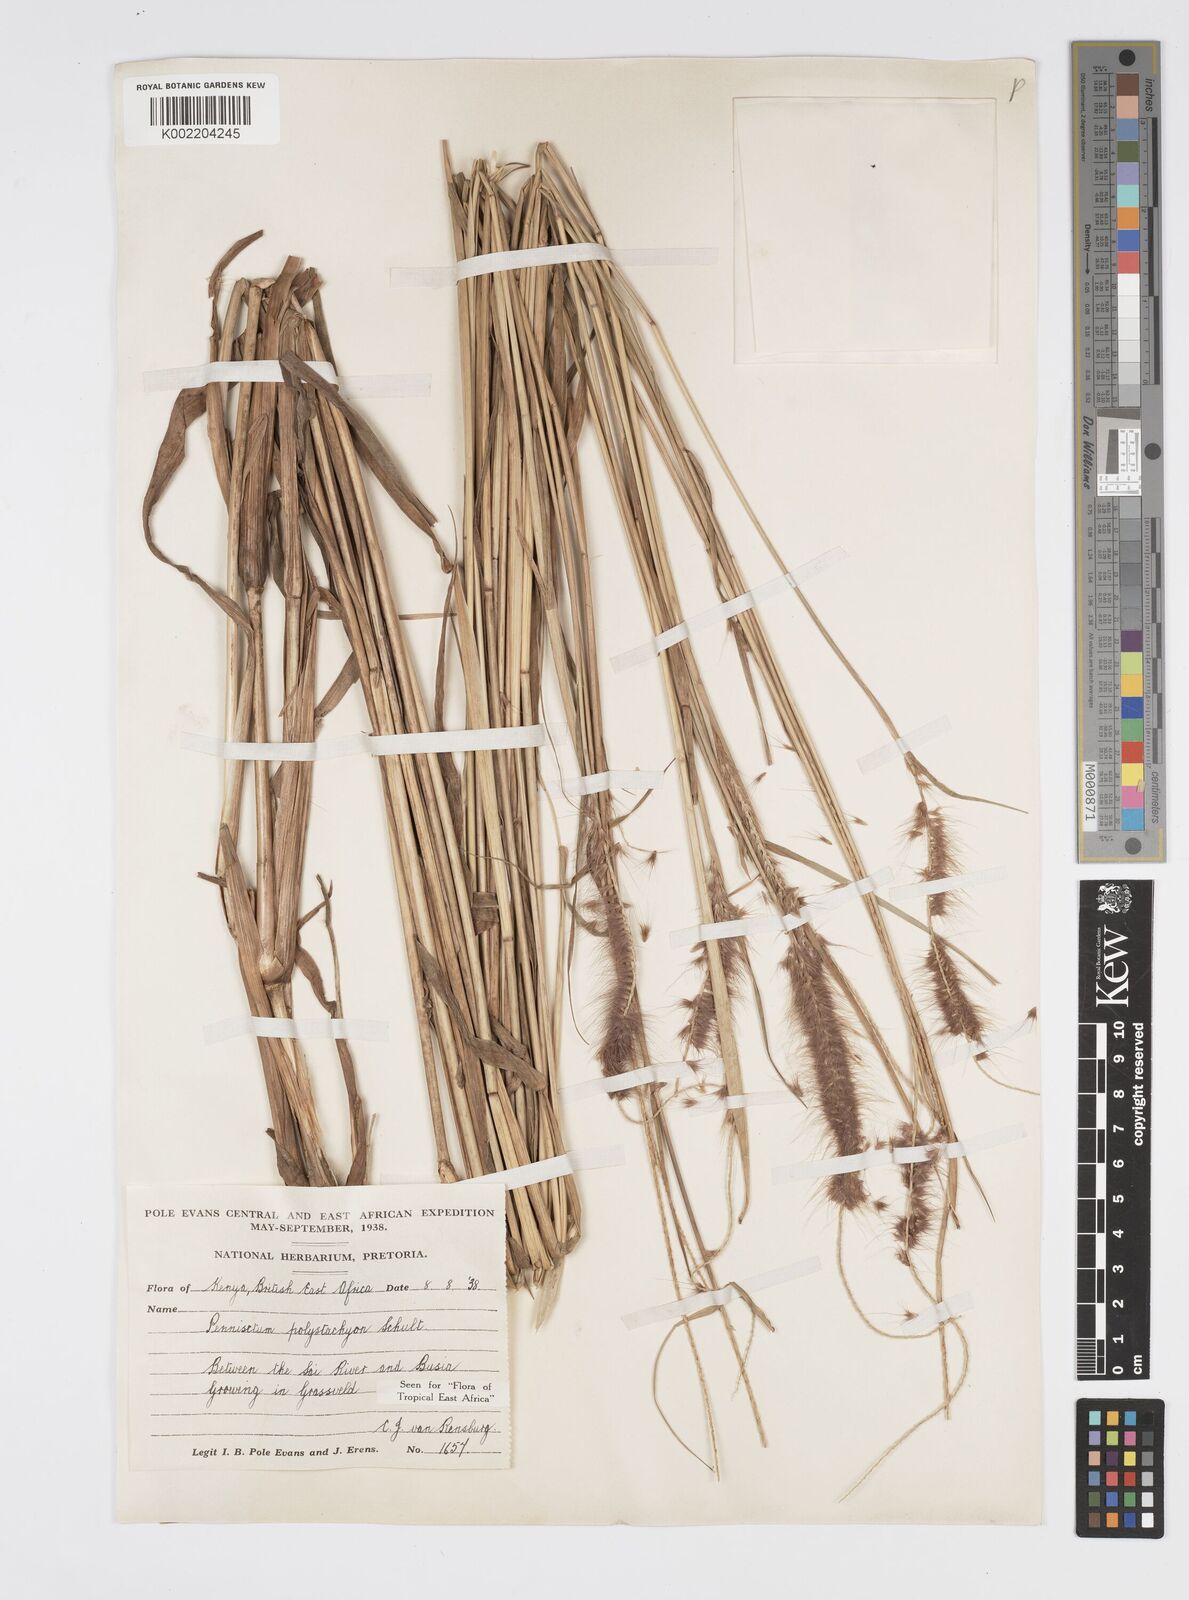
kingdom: Plantae
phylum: Tracheophyta
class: Liliopsida
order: Poales
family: Poaceae
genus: Setaria
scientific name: Setaria parviflora
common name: Knotroot bristle-grass
